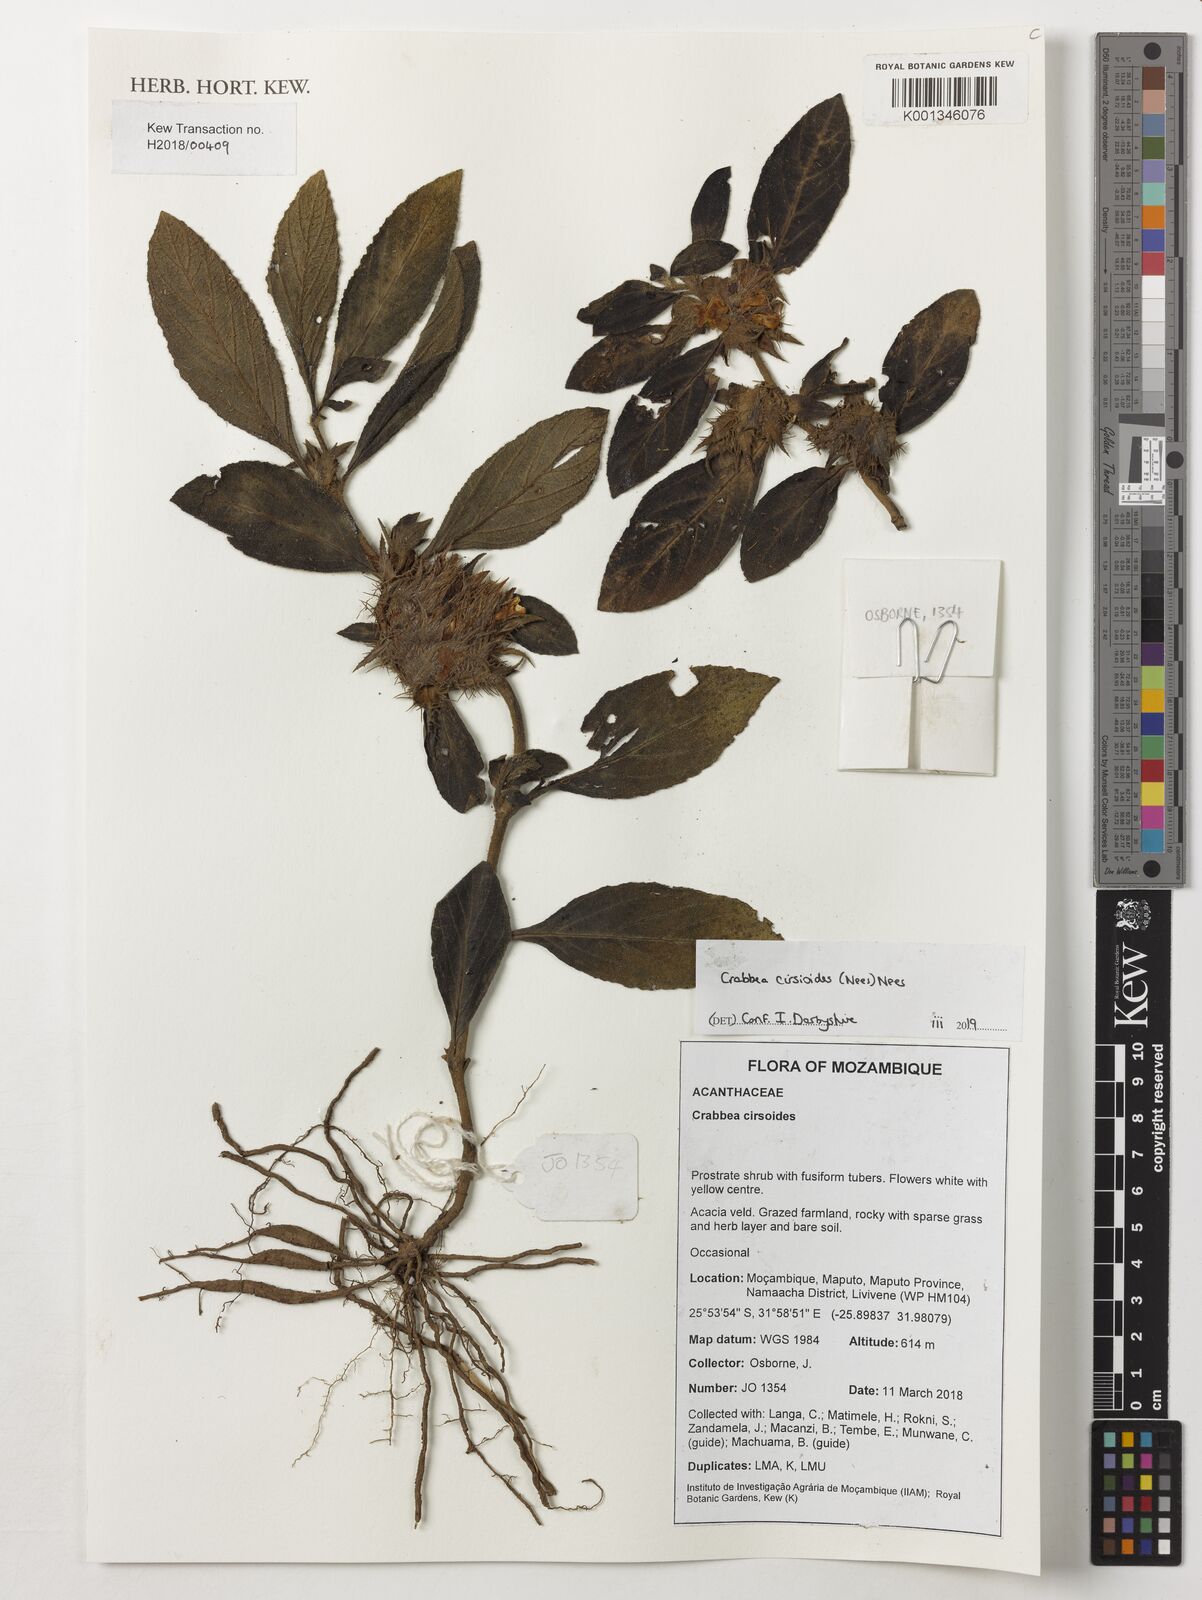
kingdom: Plantae
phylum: Tracheophyta
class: Magnoliopsida
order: Lamiales
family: Acanthaceae
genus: Crabbea
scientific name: Crabbea cirsioides
